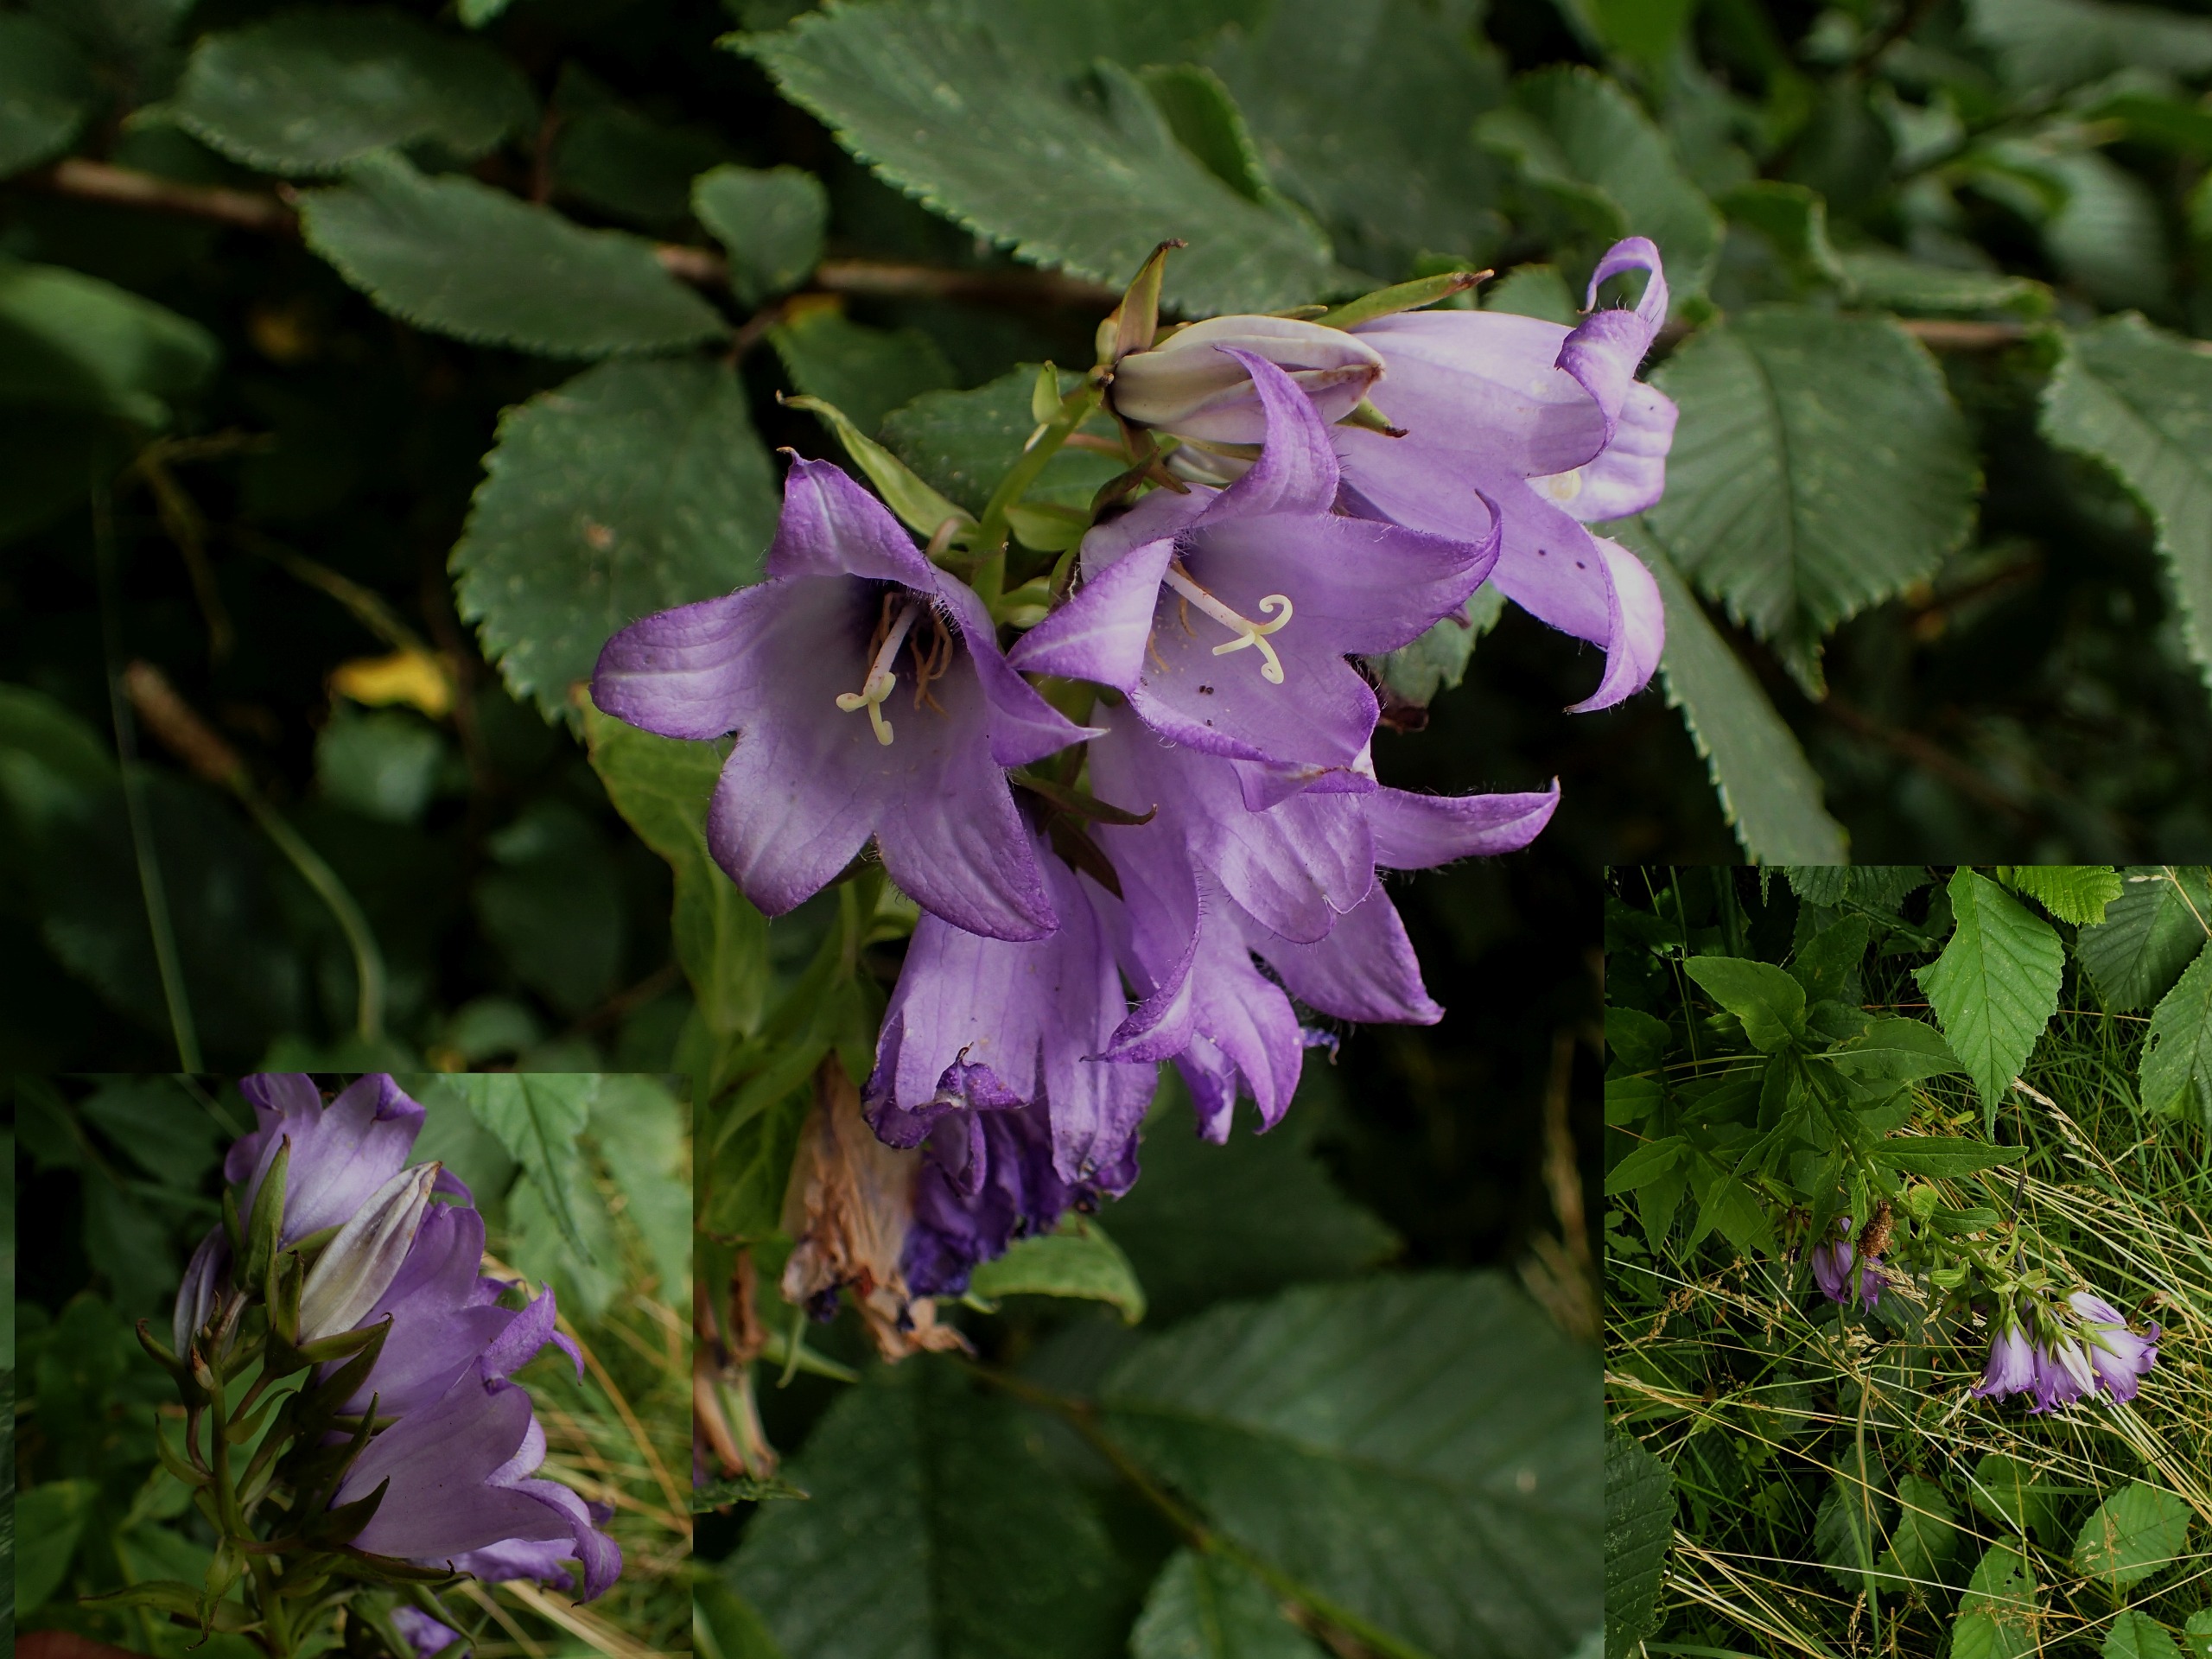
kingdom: Plantae
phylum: Tracheophyta
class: Magnoliopsida
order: Asterales
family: Campanulaceae
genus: Campanula
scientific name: Campanula latifolia
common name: Bredbladet klokke
